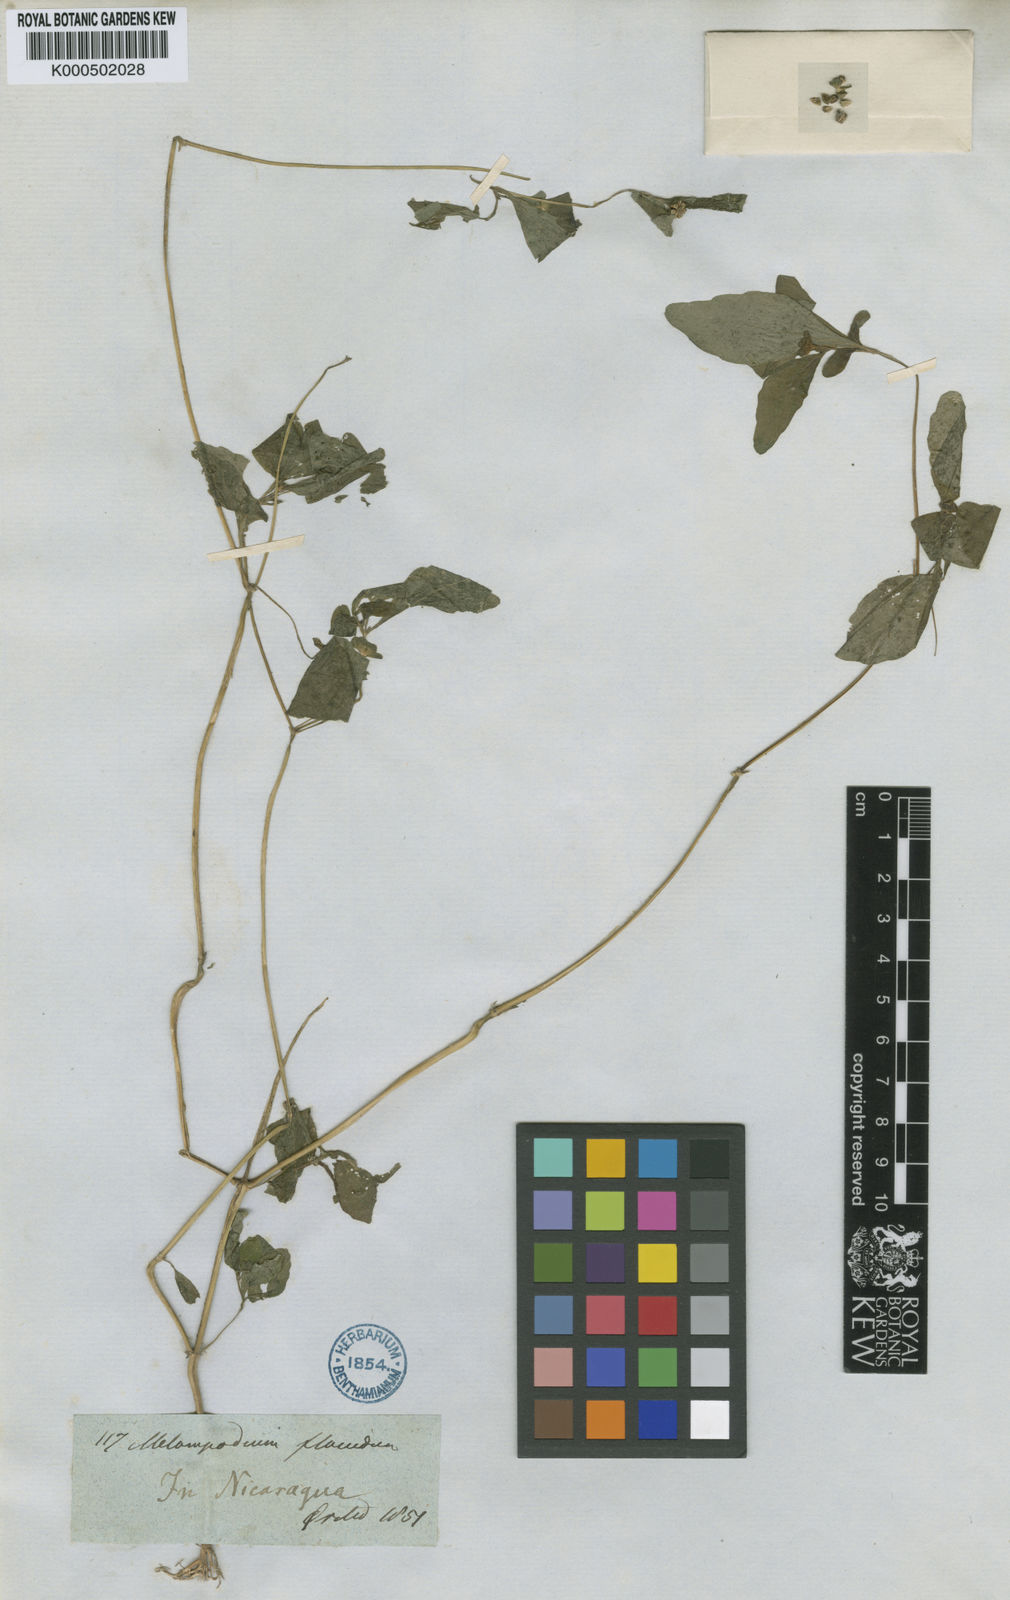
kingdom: Plantae
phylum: Tracheophyta
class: Magnoliopsida
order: Asterales
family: Asteraceae
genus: Melampodium
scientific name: Melampodium divaricatum
